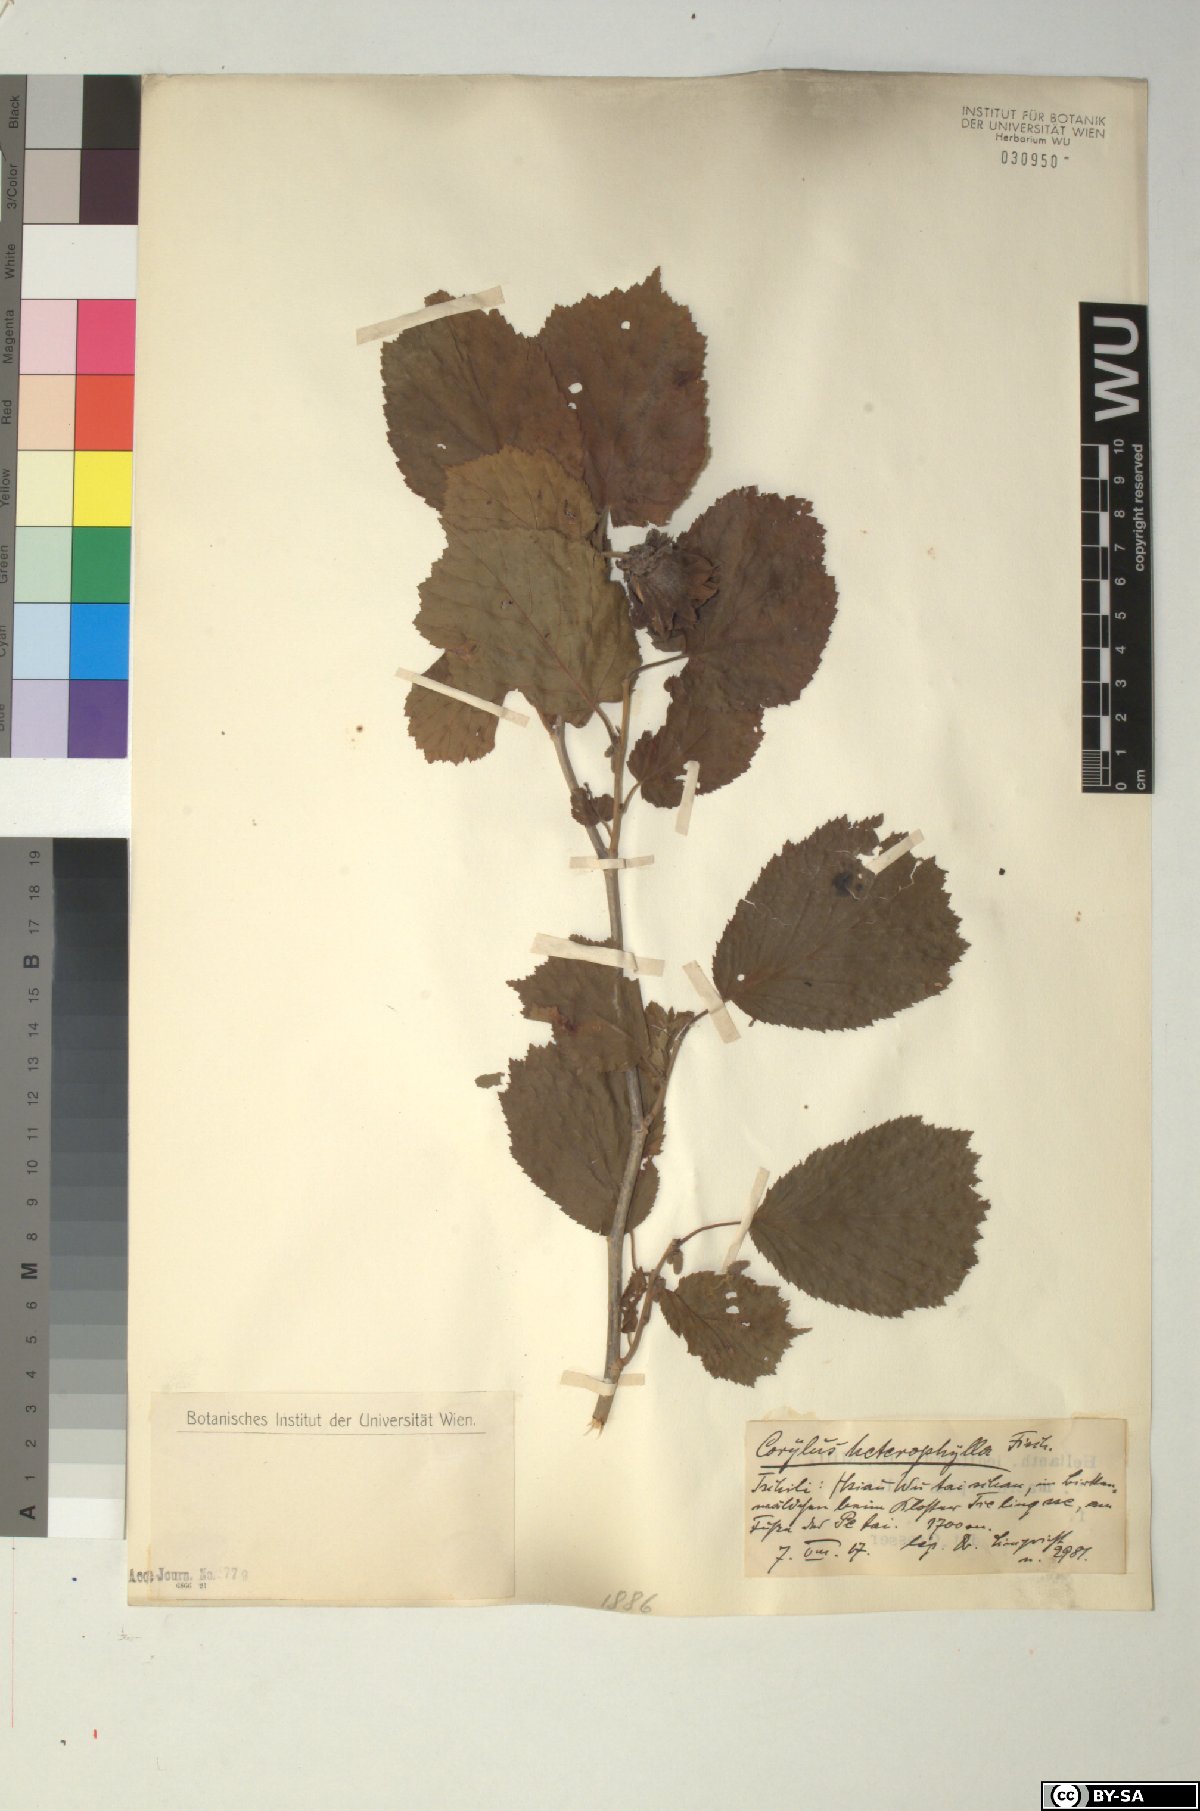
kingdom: Plantae
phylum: Tracheophyta
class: Magnoliopsida
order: Fagales
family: Betulaceae
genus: Corylus
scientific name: Corylus heterophylla
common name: Siberian hazelnut
